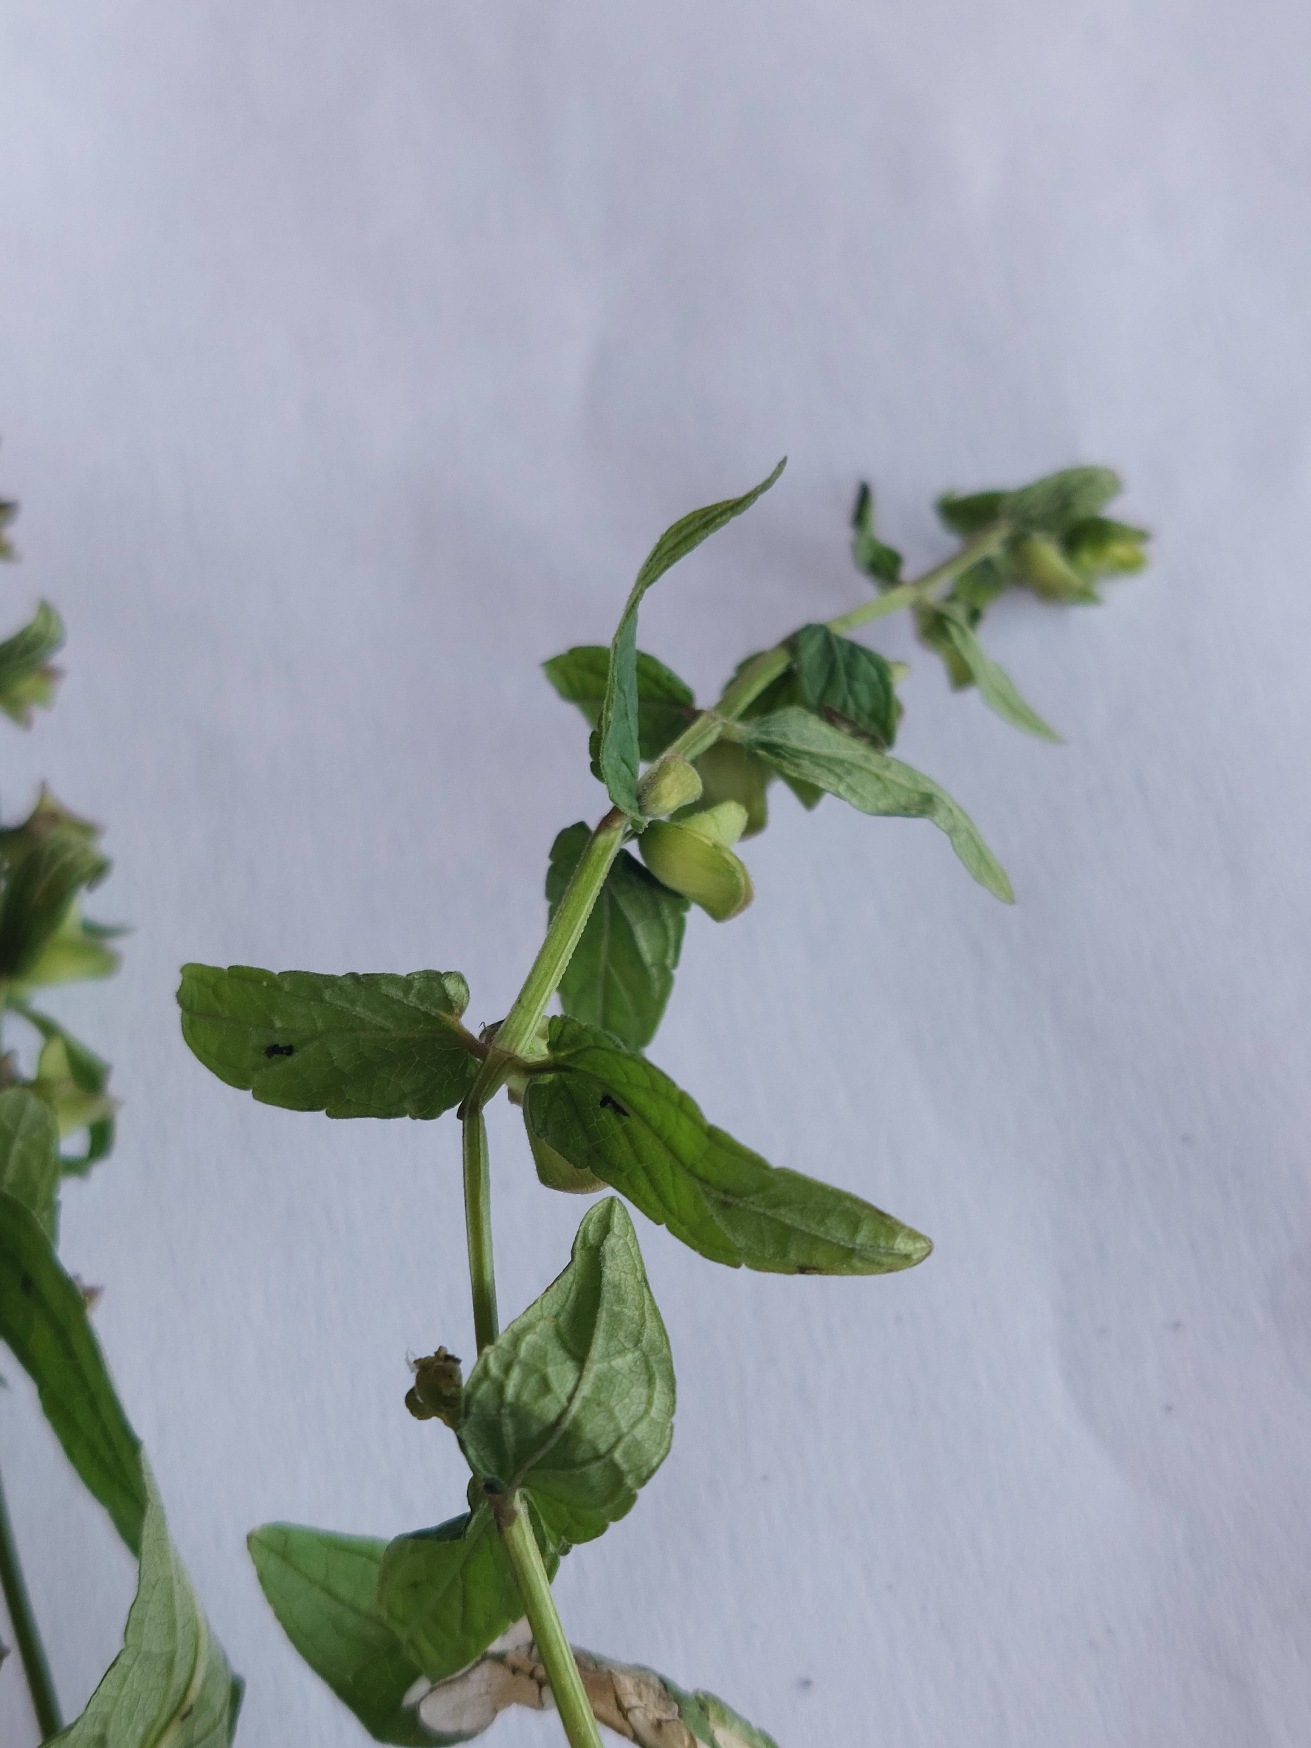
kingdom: Plantae
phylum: Tracheophyta
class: Magnoliopsida
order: Lamiales
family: Lamiaceae
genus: Scutellaria
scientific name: Scutellaria galericulata
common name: Almindelig skjolddrager
